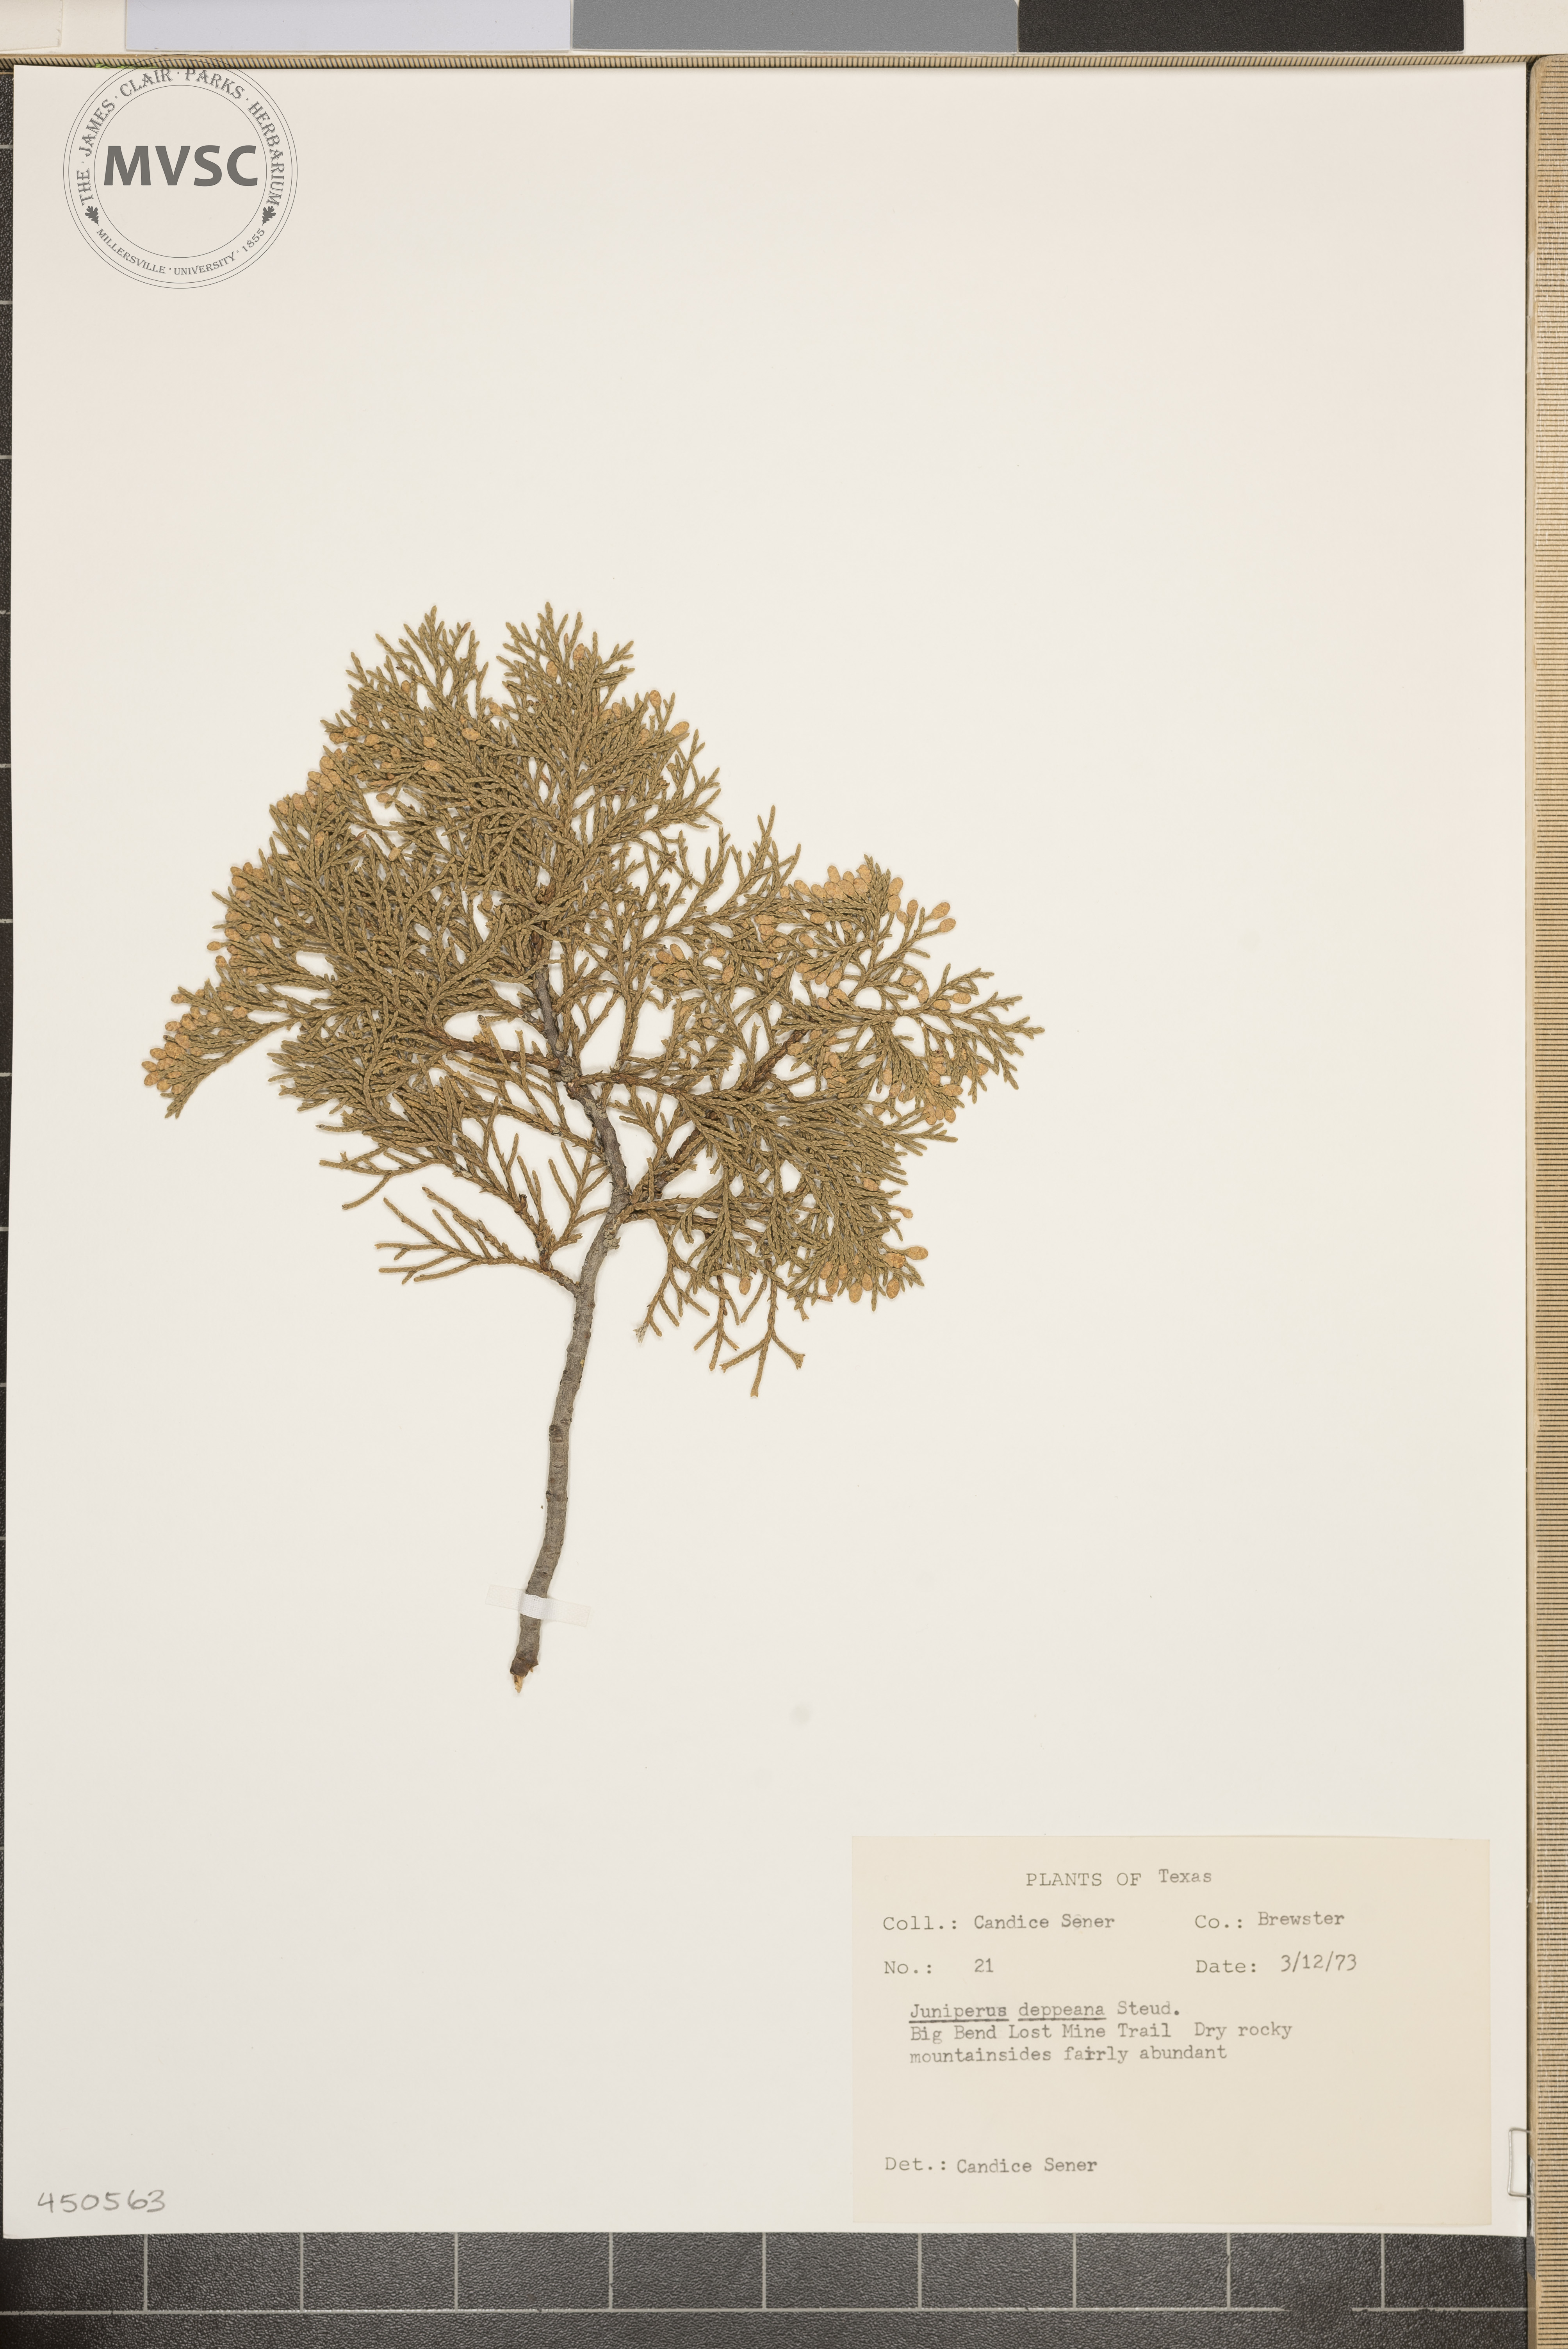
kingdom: Plantae
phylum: Tracheophyta
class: Pinopsida
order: Pinales
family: Cupressaceae
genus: Juniperus
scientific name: Juniperus deppeana
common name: Alligator juniper
